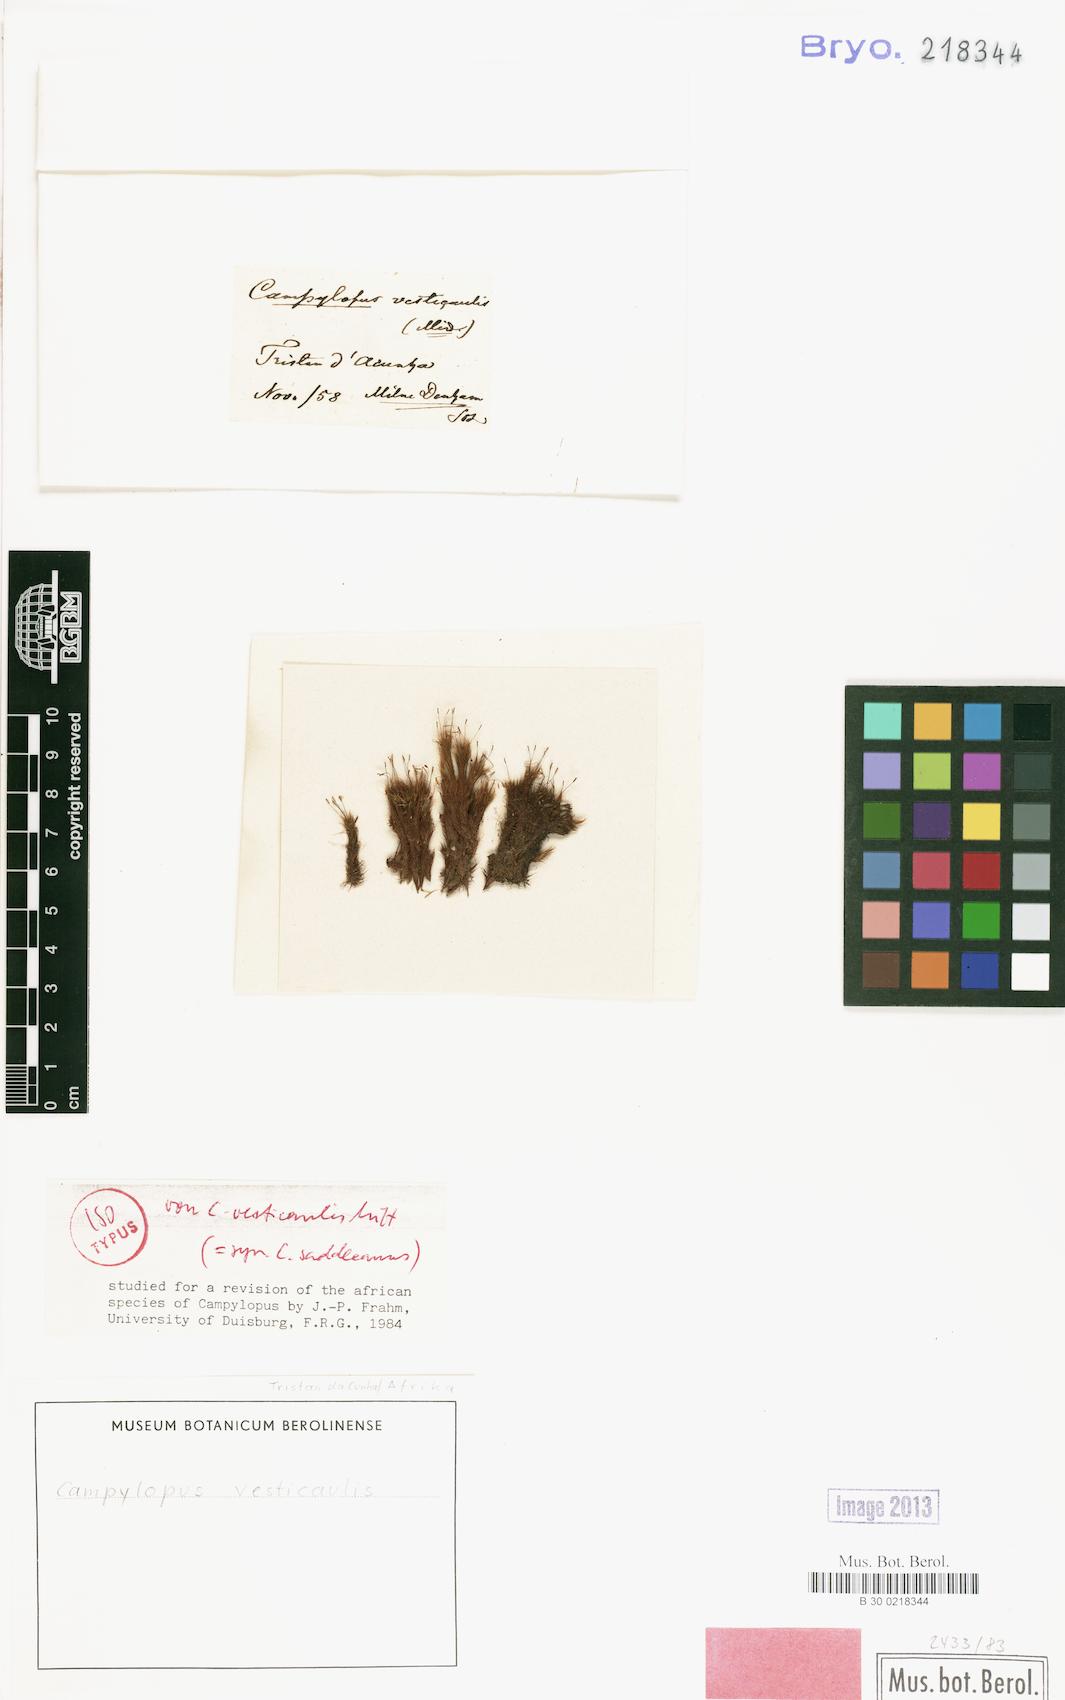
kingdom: Plantae
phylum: Bryophyta
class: Bryopsida
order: Dicranales
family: Leucobryaceae
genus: Campylopus
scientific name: Campylopus vesticaulis
